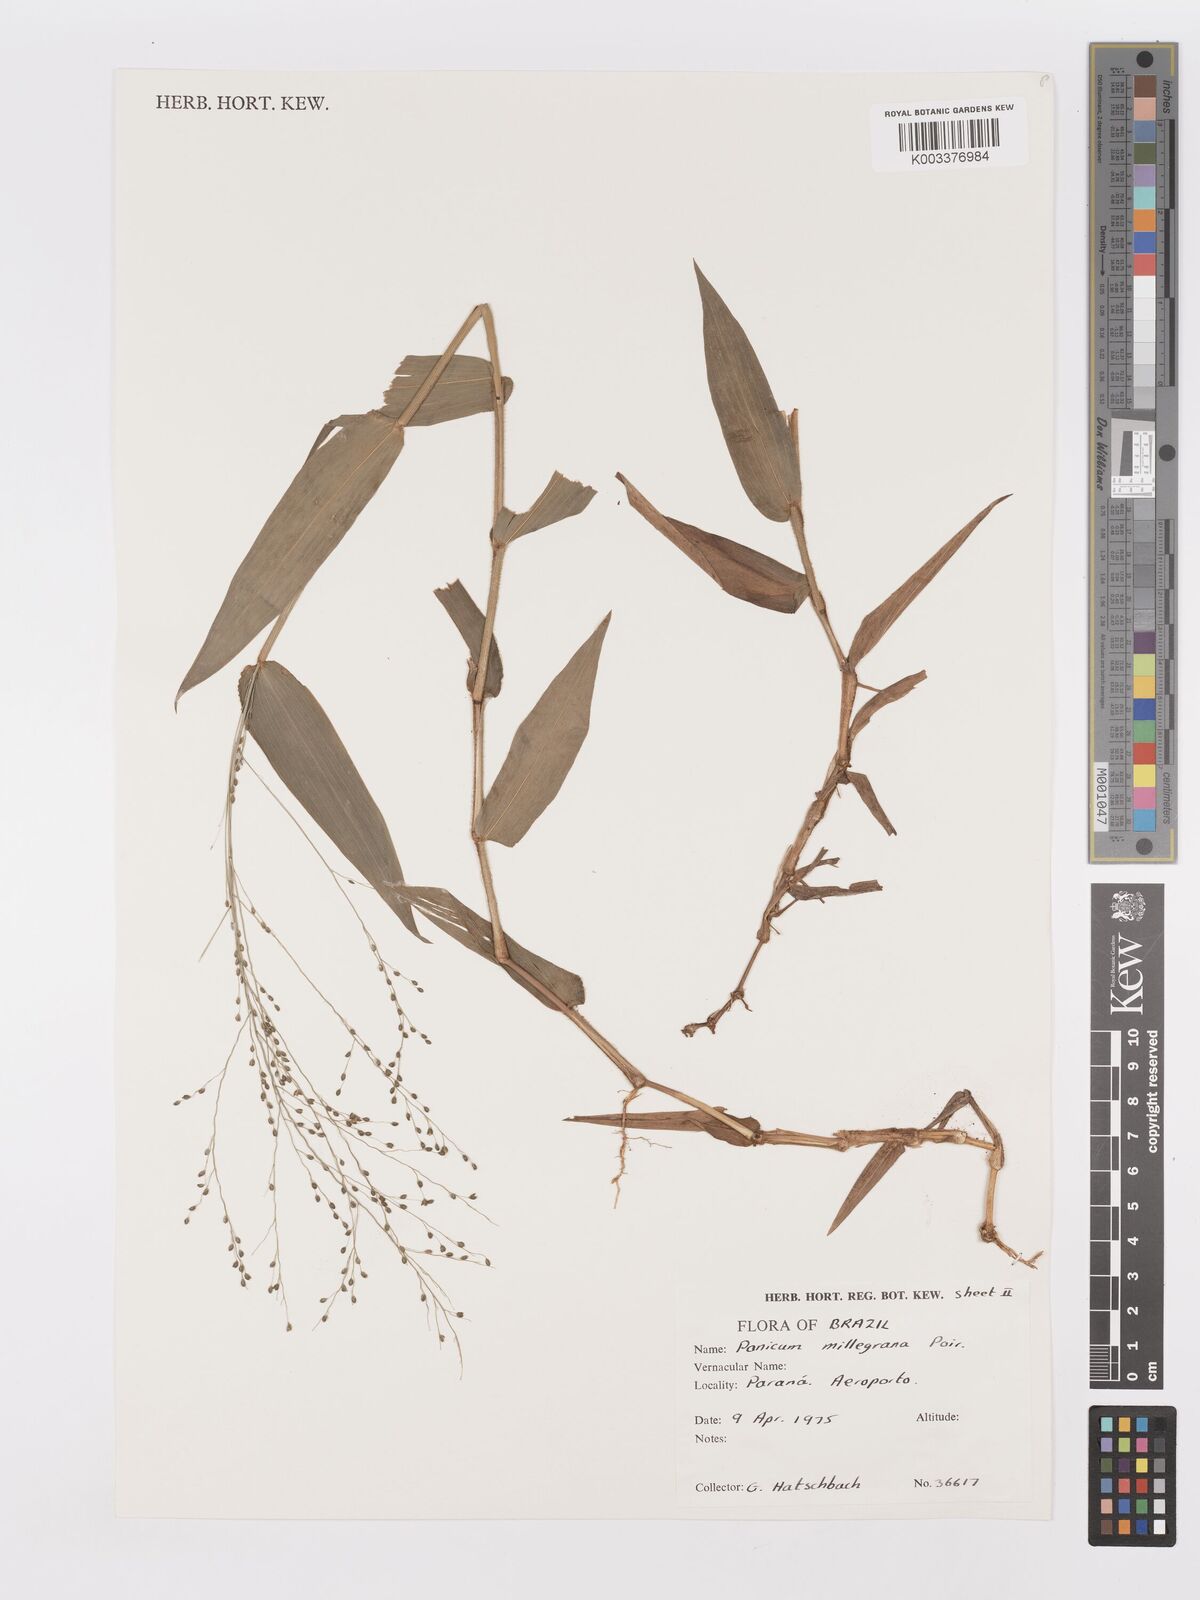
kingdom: Plantae
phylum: Tracheophyta
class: Liliopsida
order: Poales
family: Poaceae
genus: Panicum
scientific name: Panicum millegrana
